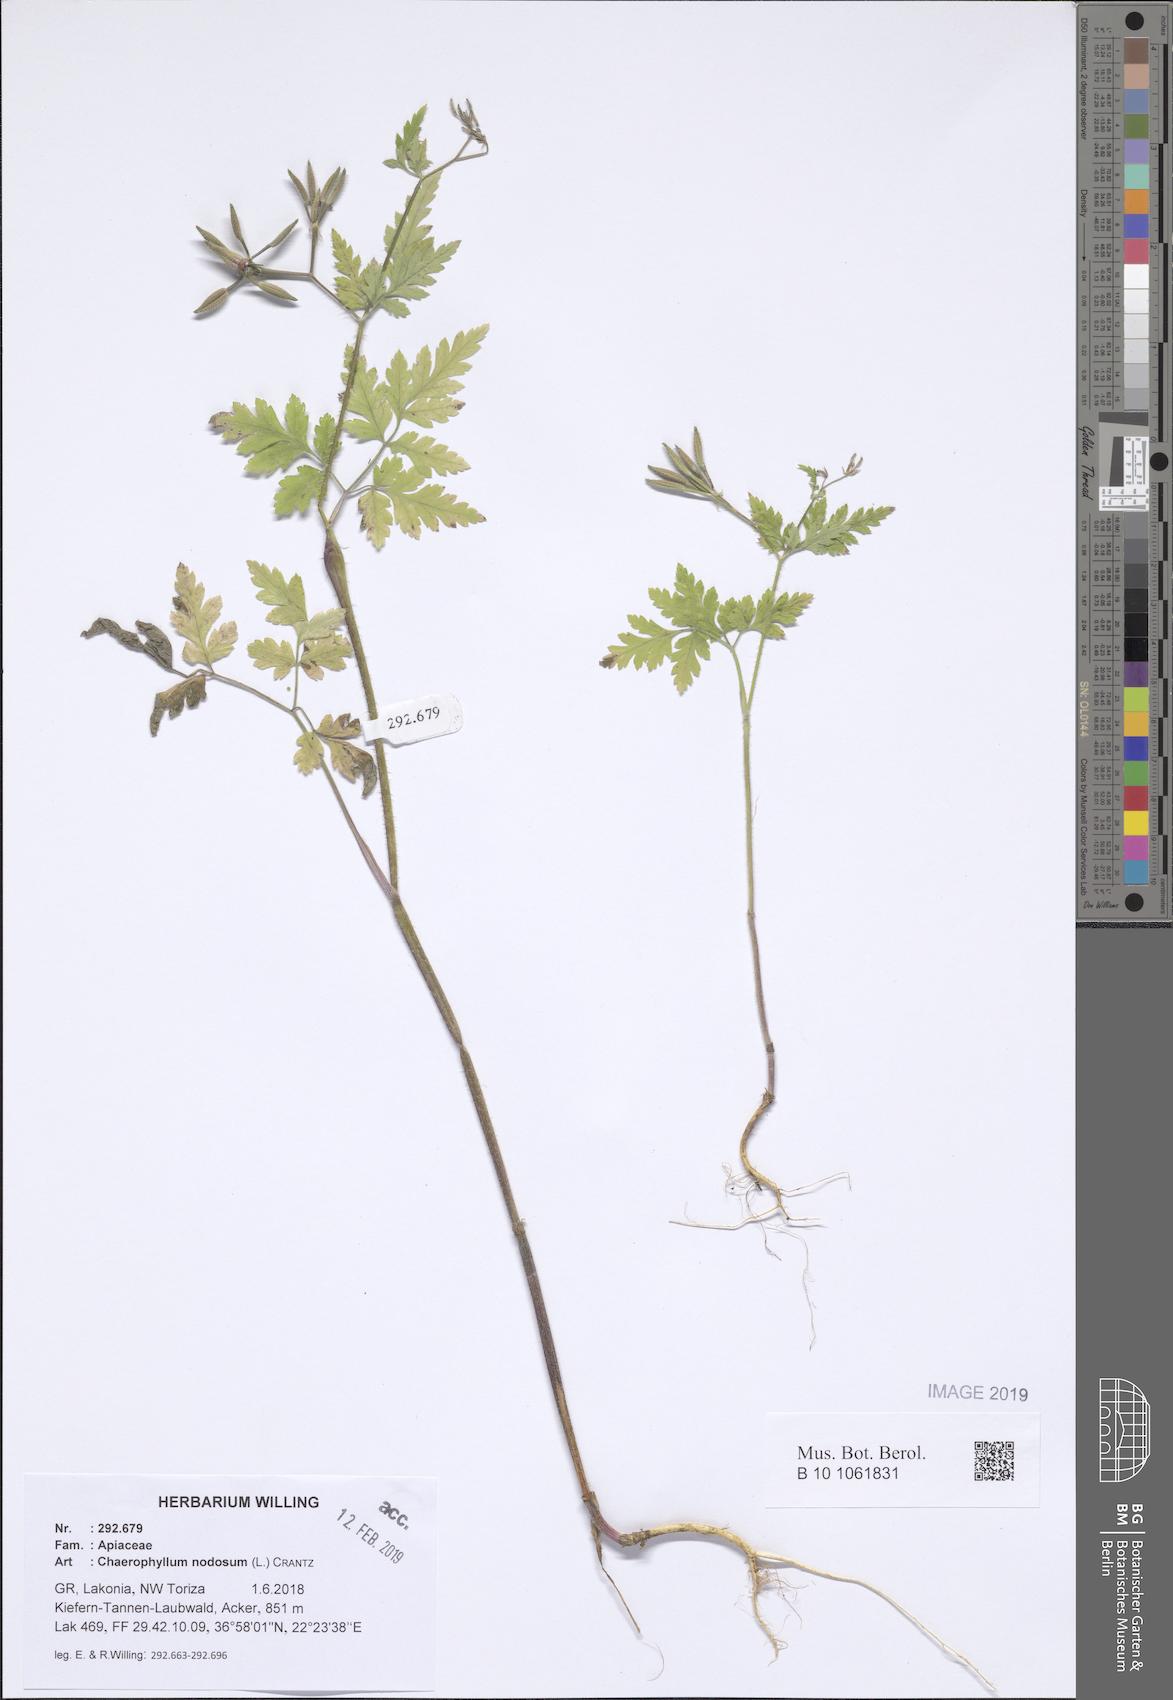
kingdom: Plantae
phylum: Tracheophyta
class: Magnoliopsida
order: Apiales
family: Apiaceae
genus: Chaerophyllum
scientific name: Chaerophyllum nodosum
